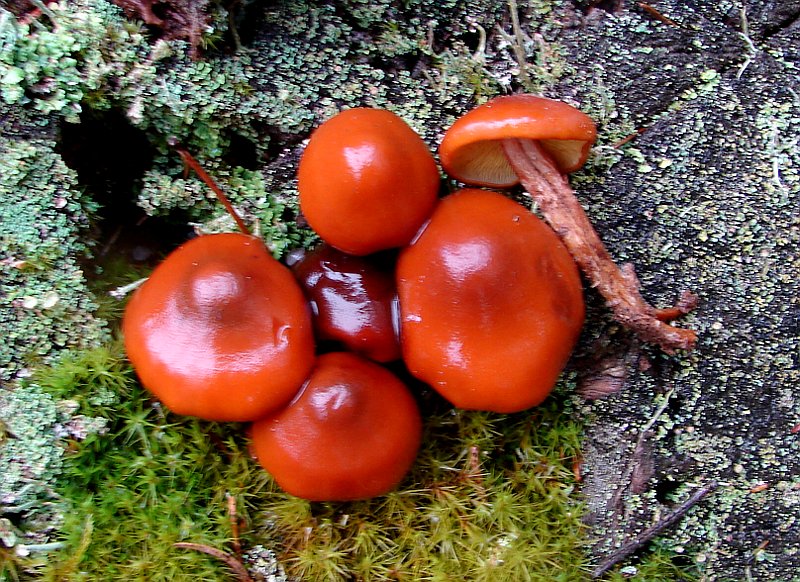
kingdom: Fungi
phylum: Basidiomycota
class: Agaricomycetes
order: Agaricales
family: Hymenogastraceae
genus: Gymnopilus
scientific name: Gymnopilus picreus
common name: puklet flammehat
